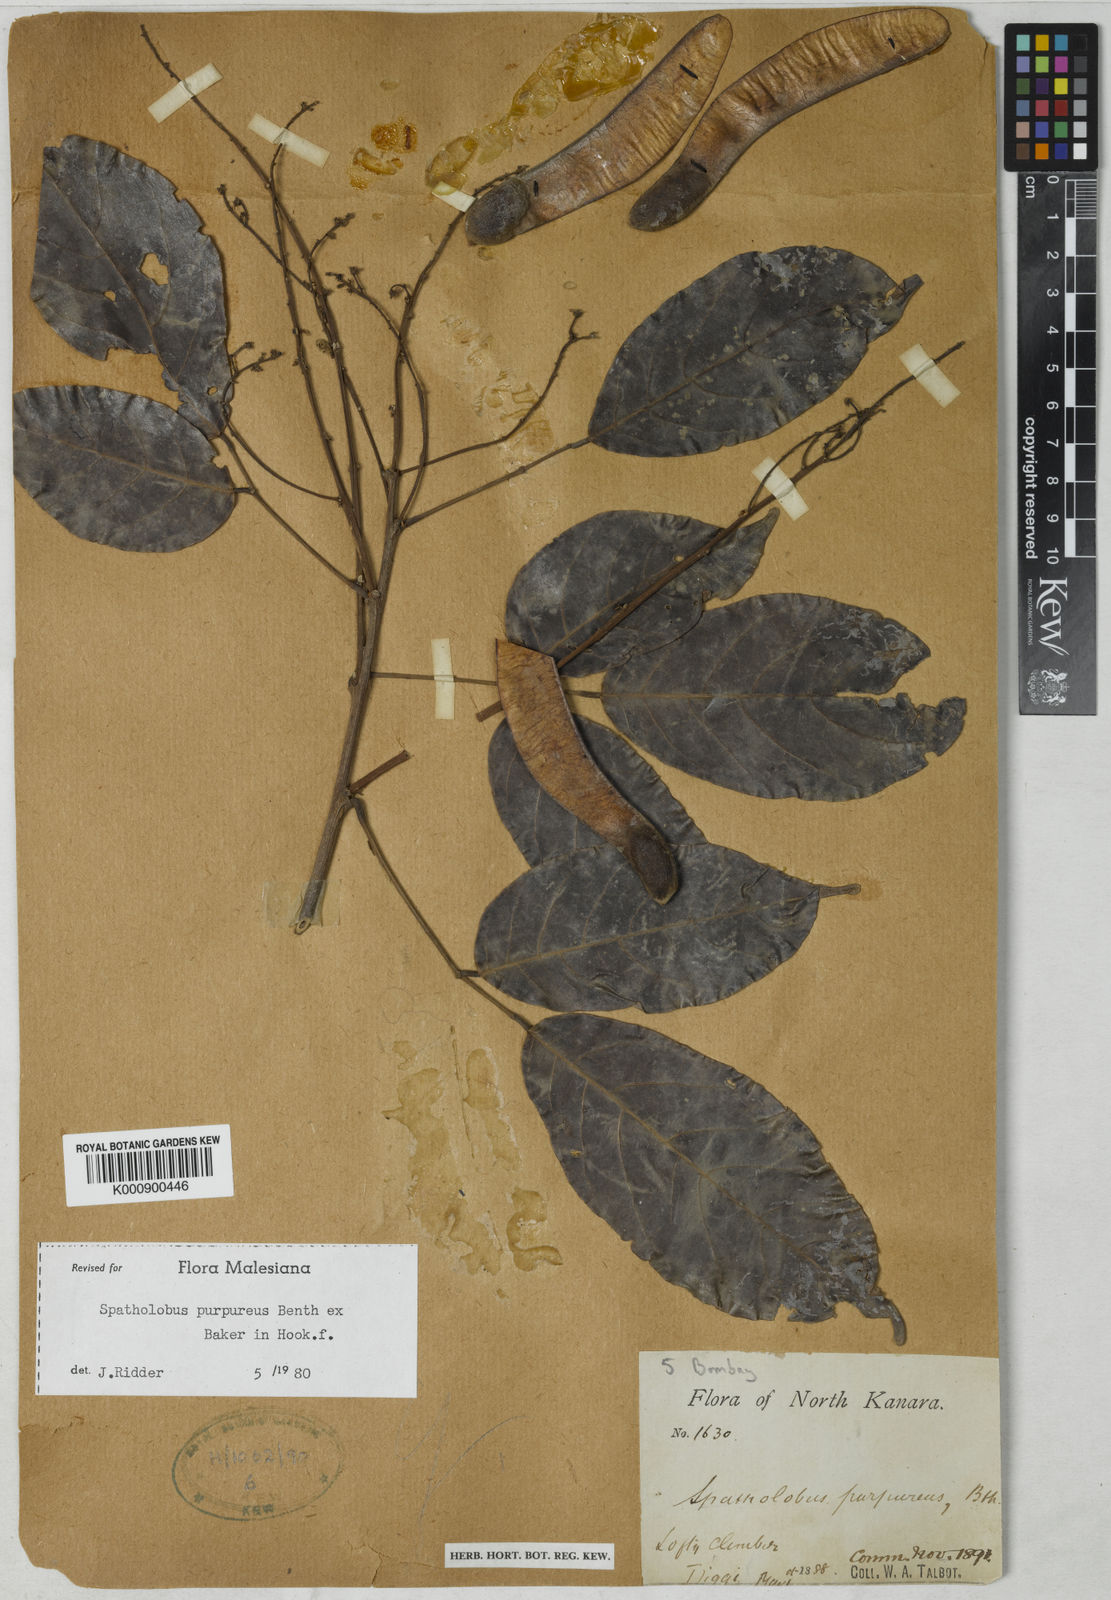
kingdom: Plantae
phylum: Tracheophyta
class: Magnoliopsida
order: Fabales
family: Fabaceae
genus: Spatholobus
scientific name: Spatholobus purpureus
